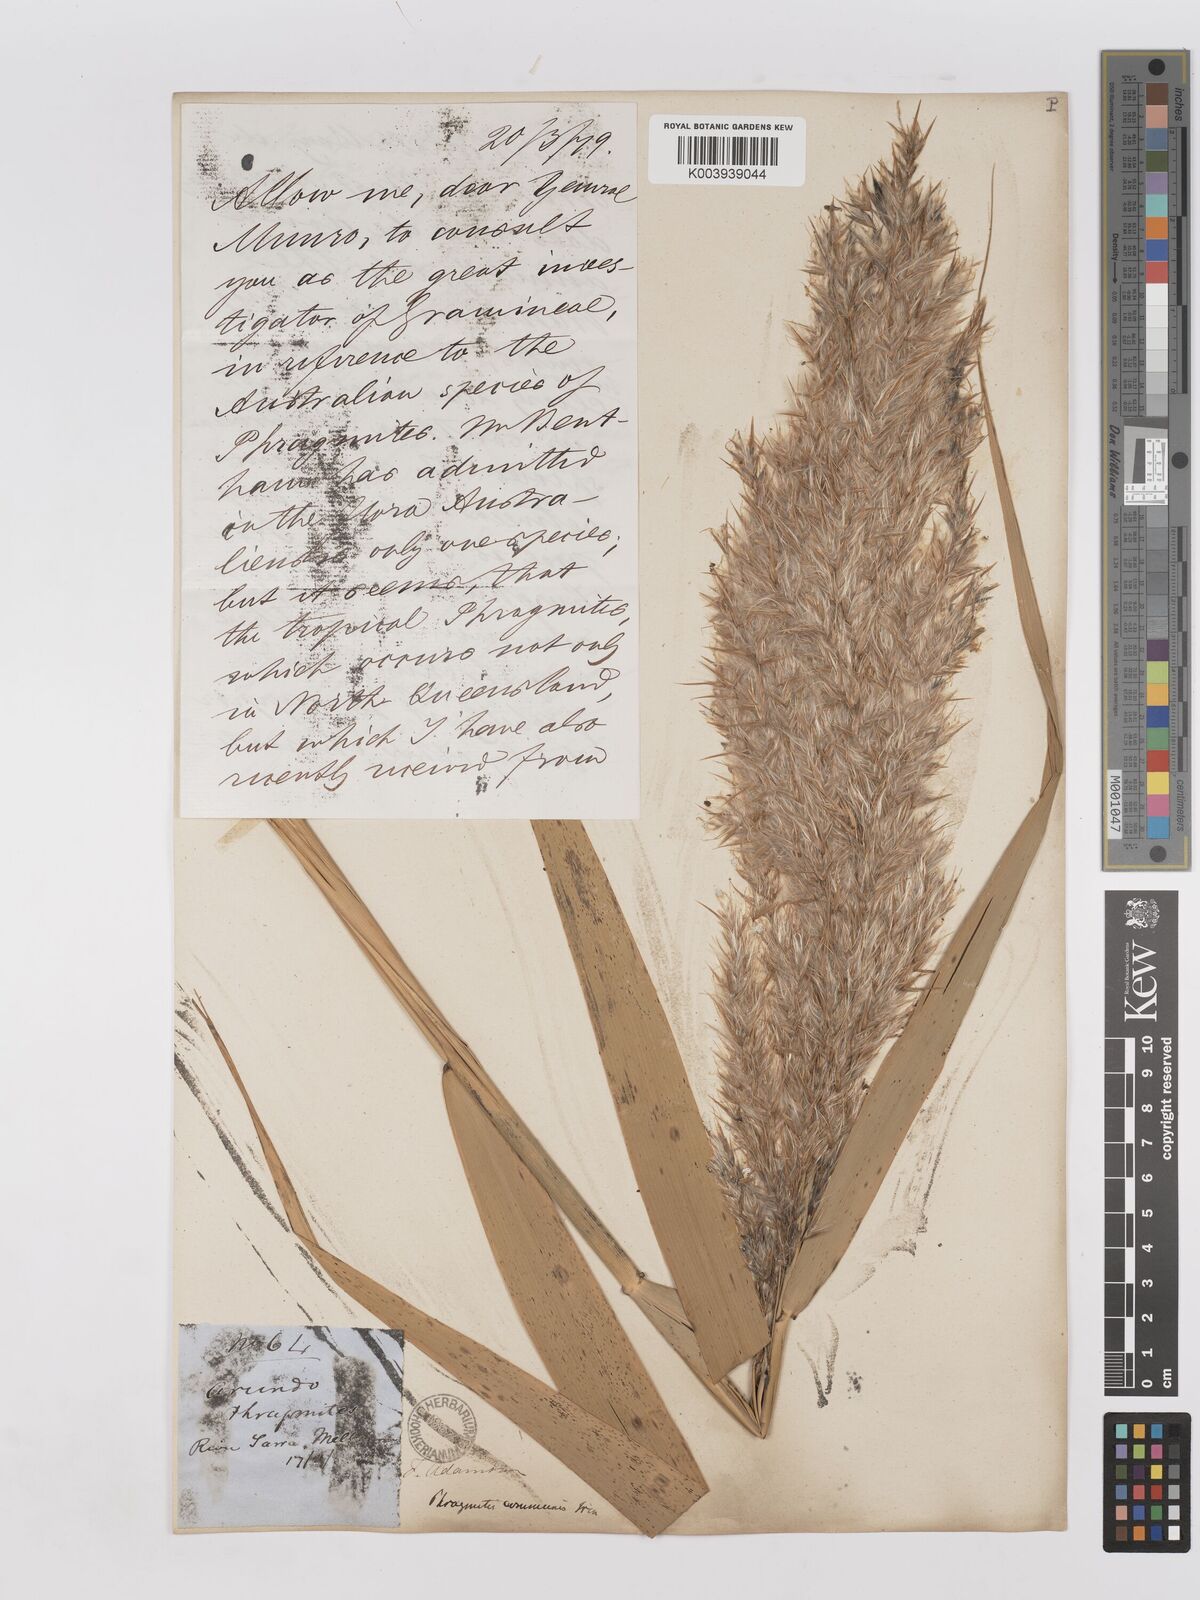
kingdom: Plantae
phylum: Tracheophyta
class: Liliopsida
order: Poales
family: Poaceae
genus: Phragmites
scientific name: Phragmites australis
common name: Common reed
